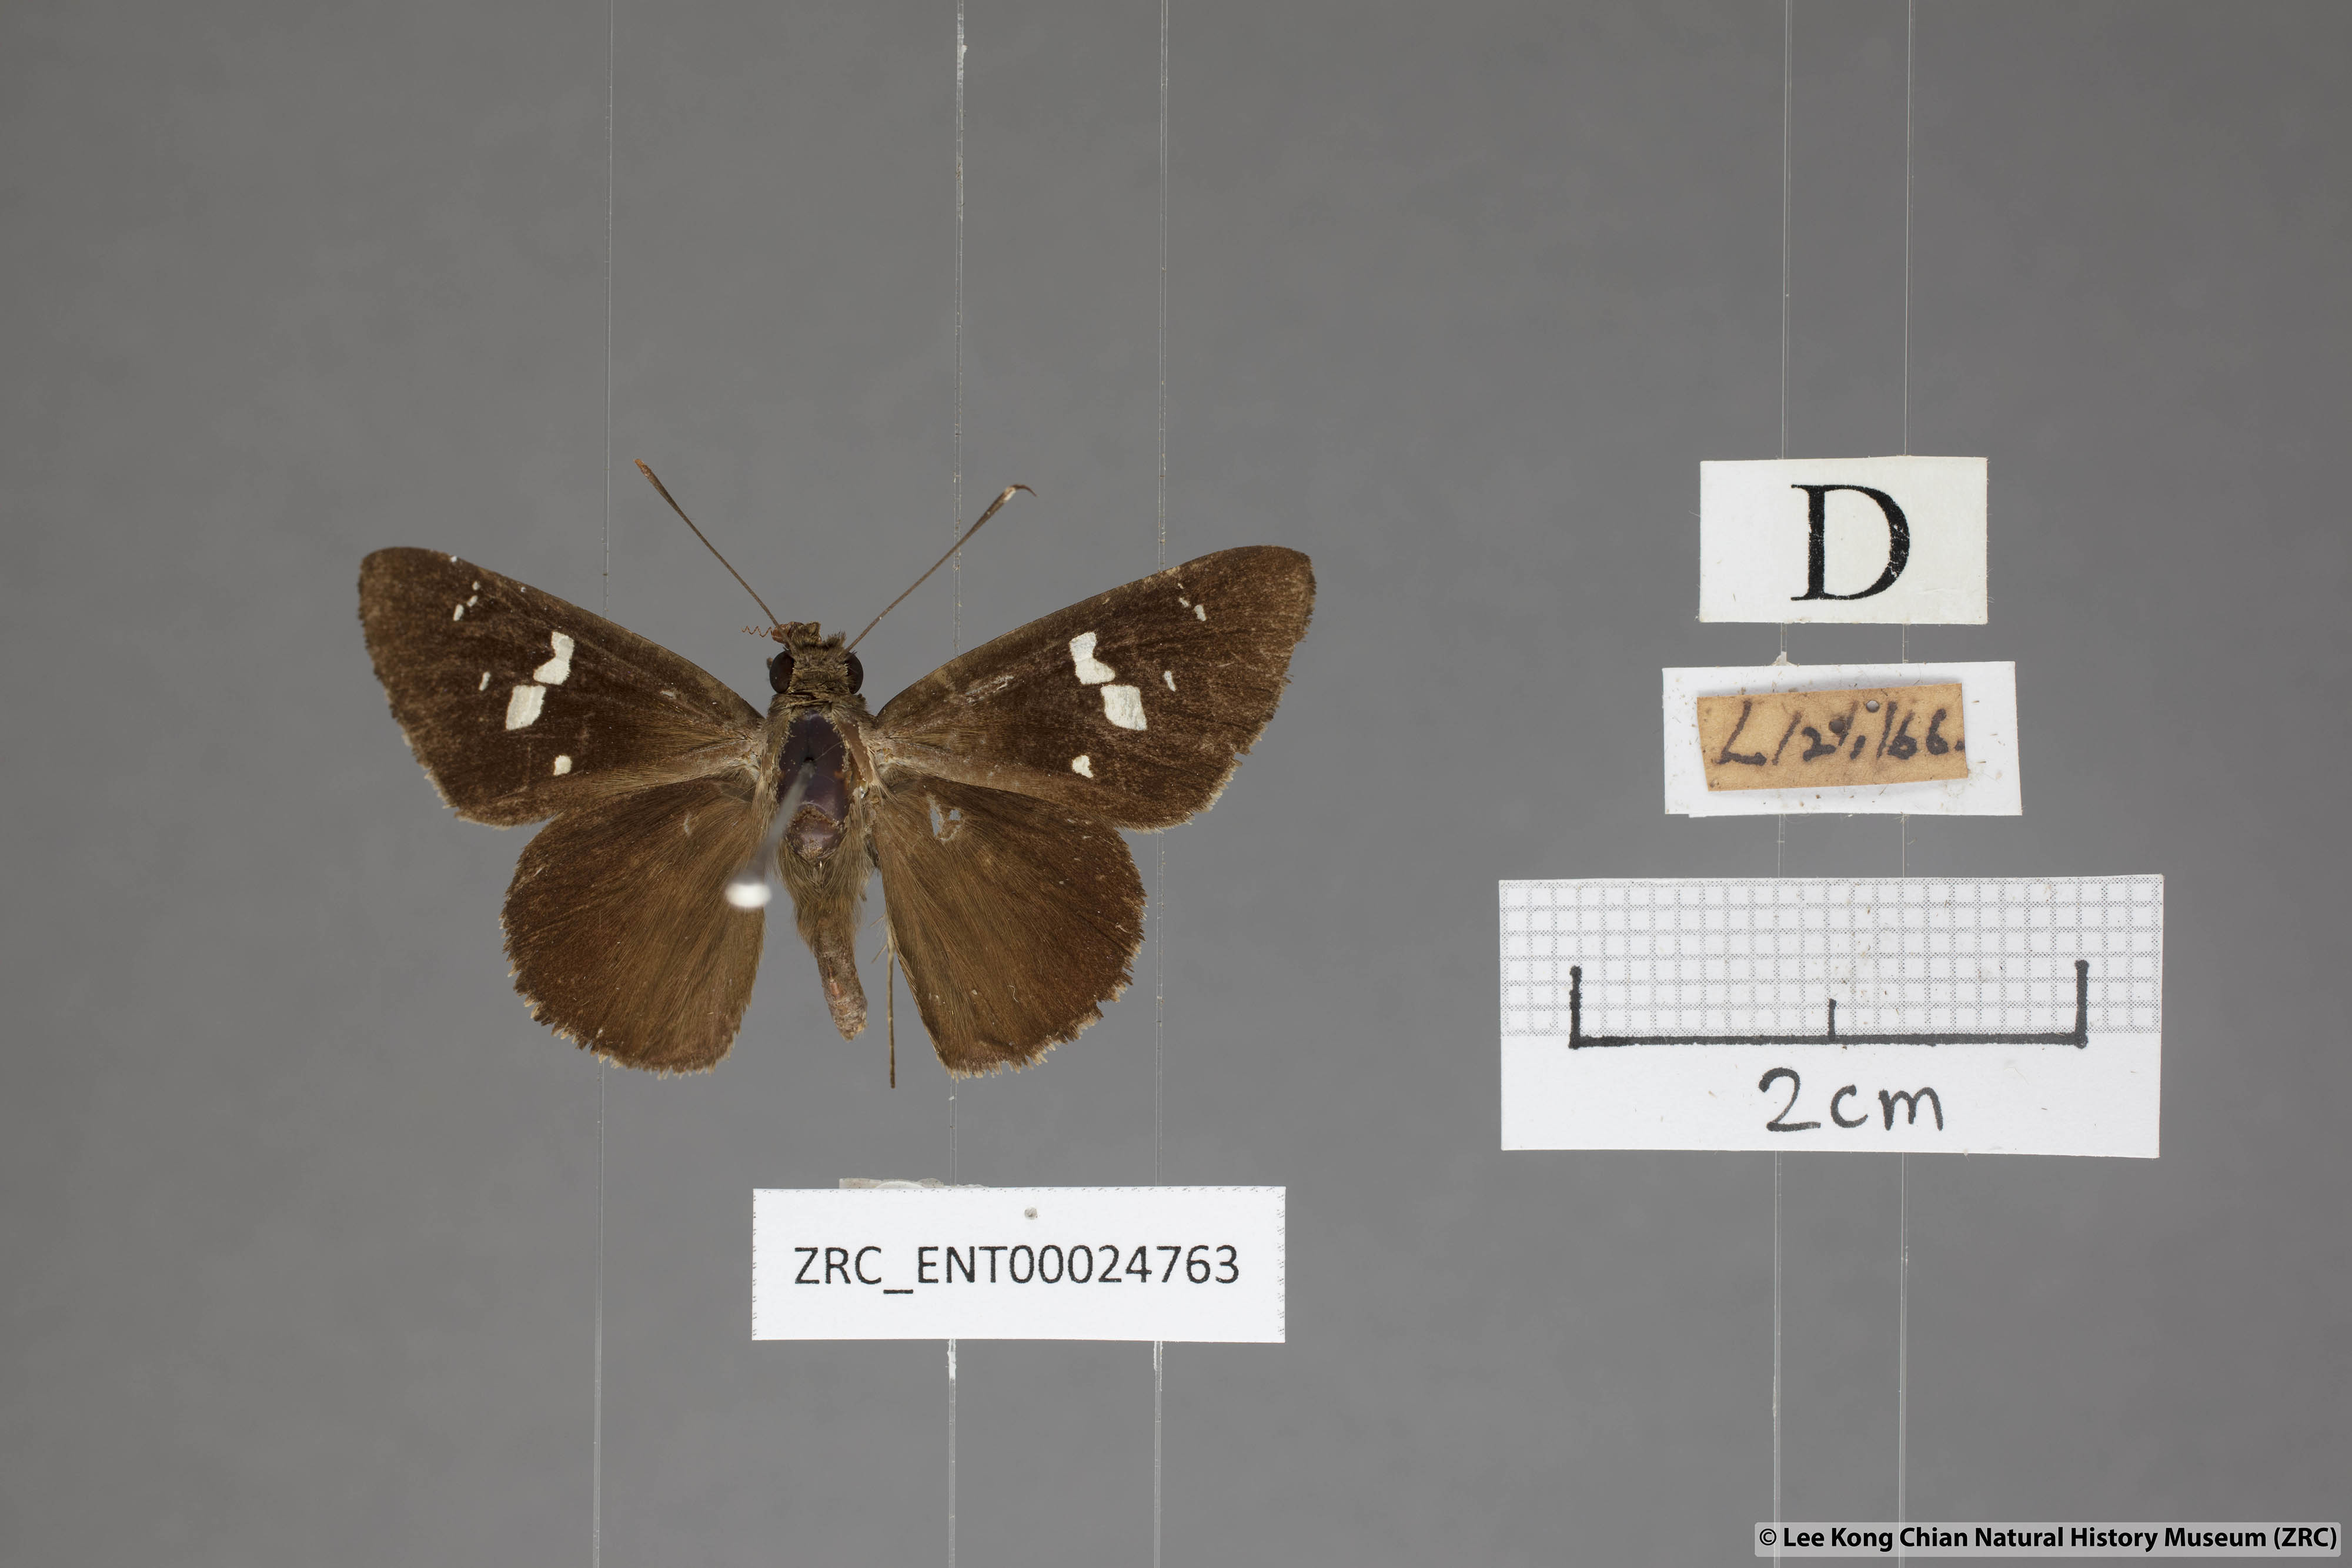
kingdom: Animalia
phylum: Arthropoda
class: Insecta
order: Lepidoptera
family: Hesperiidae
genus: Hyarotis
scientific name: Hyarotis adrastus
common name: Tree flitter
